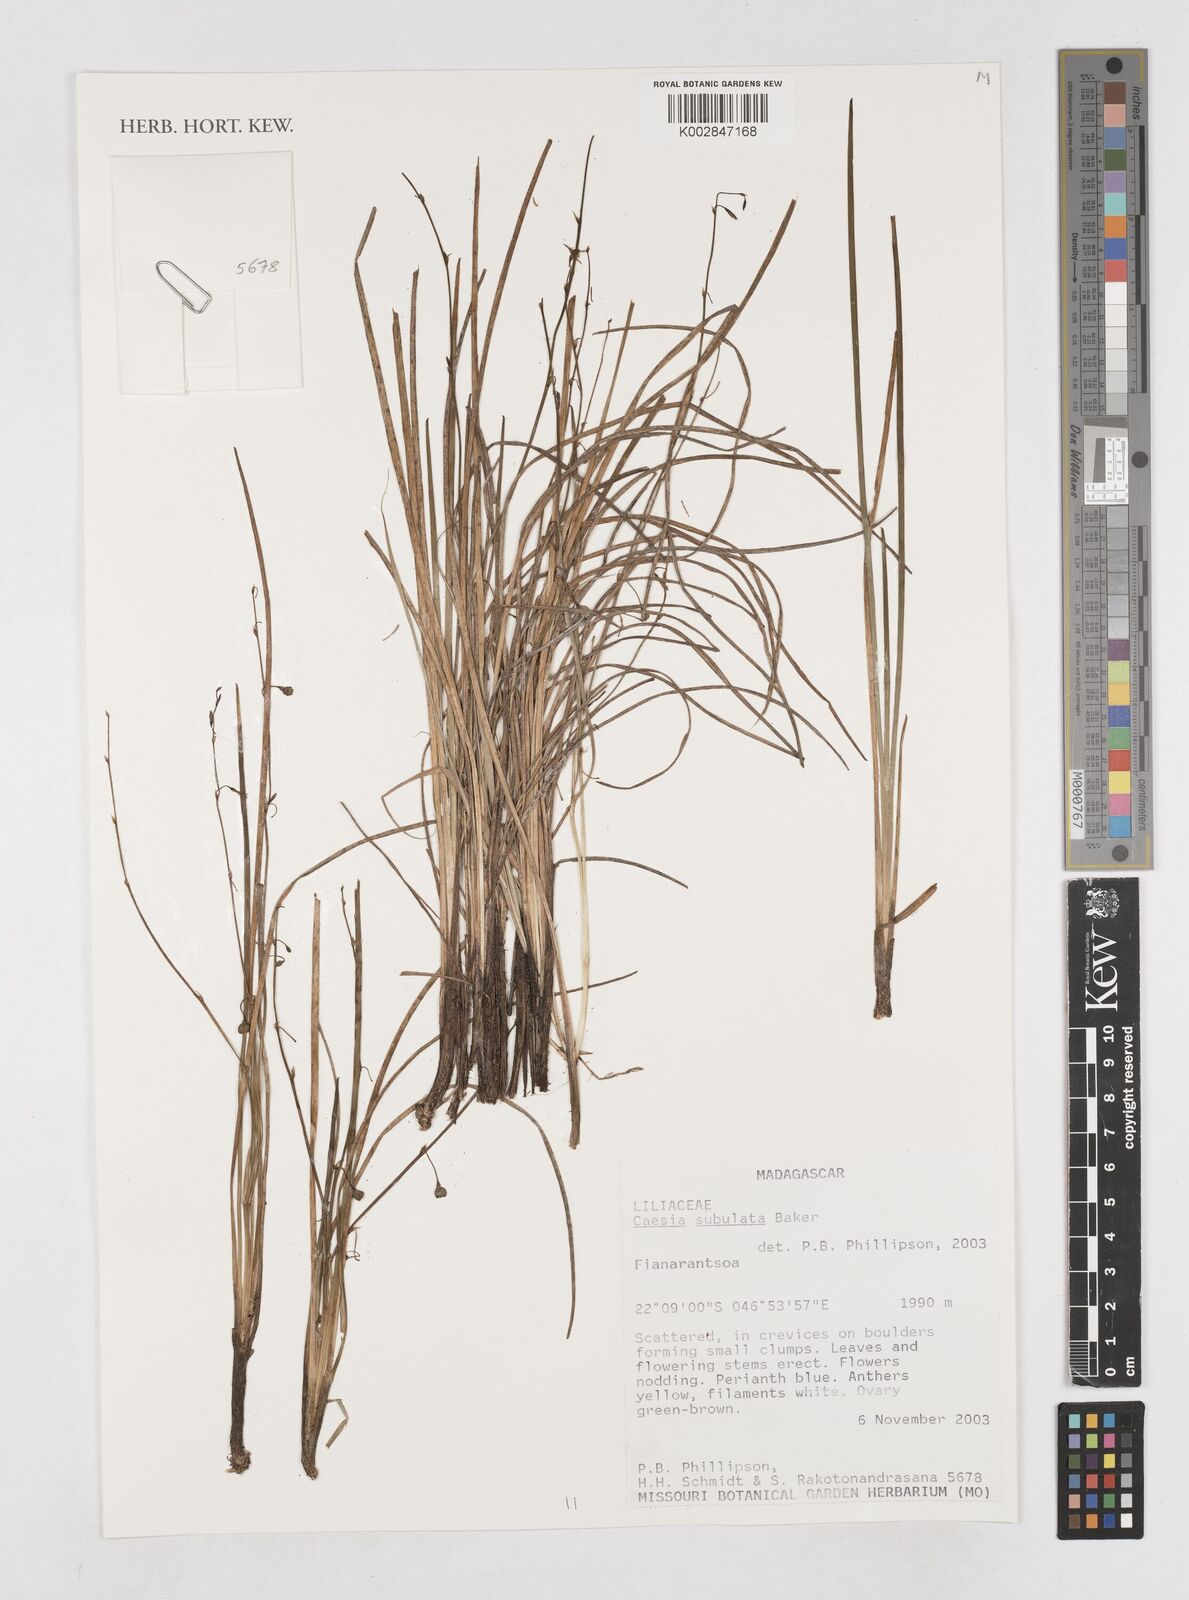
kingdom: Plantae
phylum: Tracheophyta
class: Liliopsida
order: Asparagales
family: Asphodelaceae
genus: Caesia
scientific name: Caesia subulata
